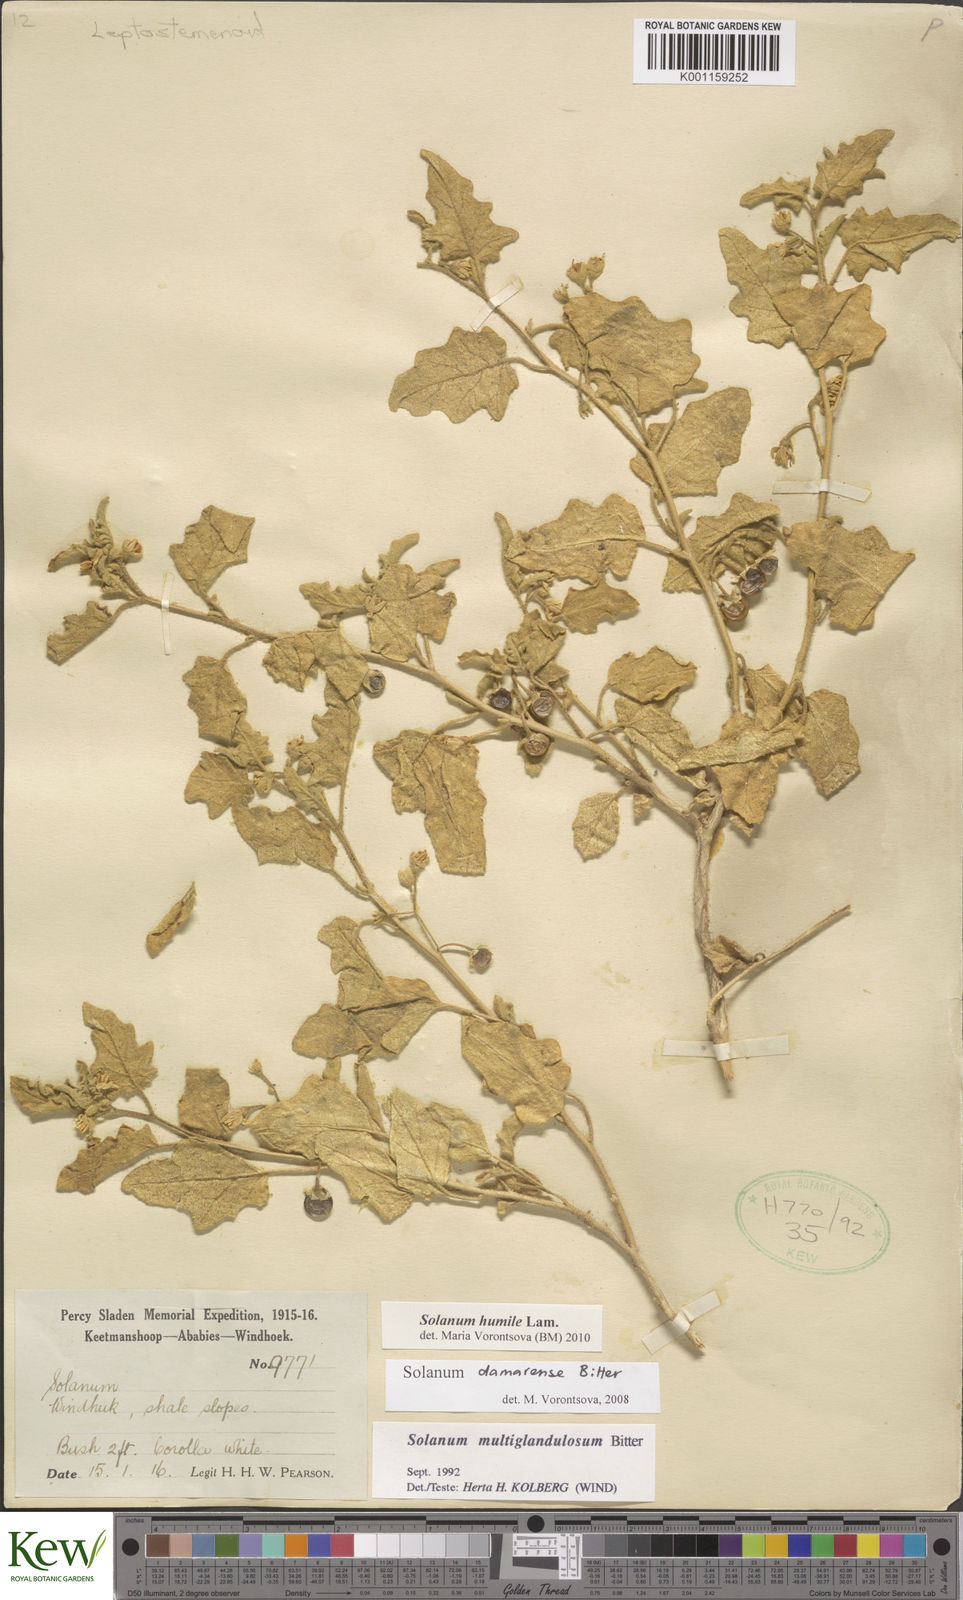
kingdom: Plantae
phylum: Tracheophyta
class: Magnoliopsida
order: Solanales
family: Solanaceae
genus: Solanum
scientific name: Solanum humile
